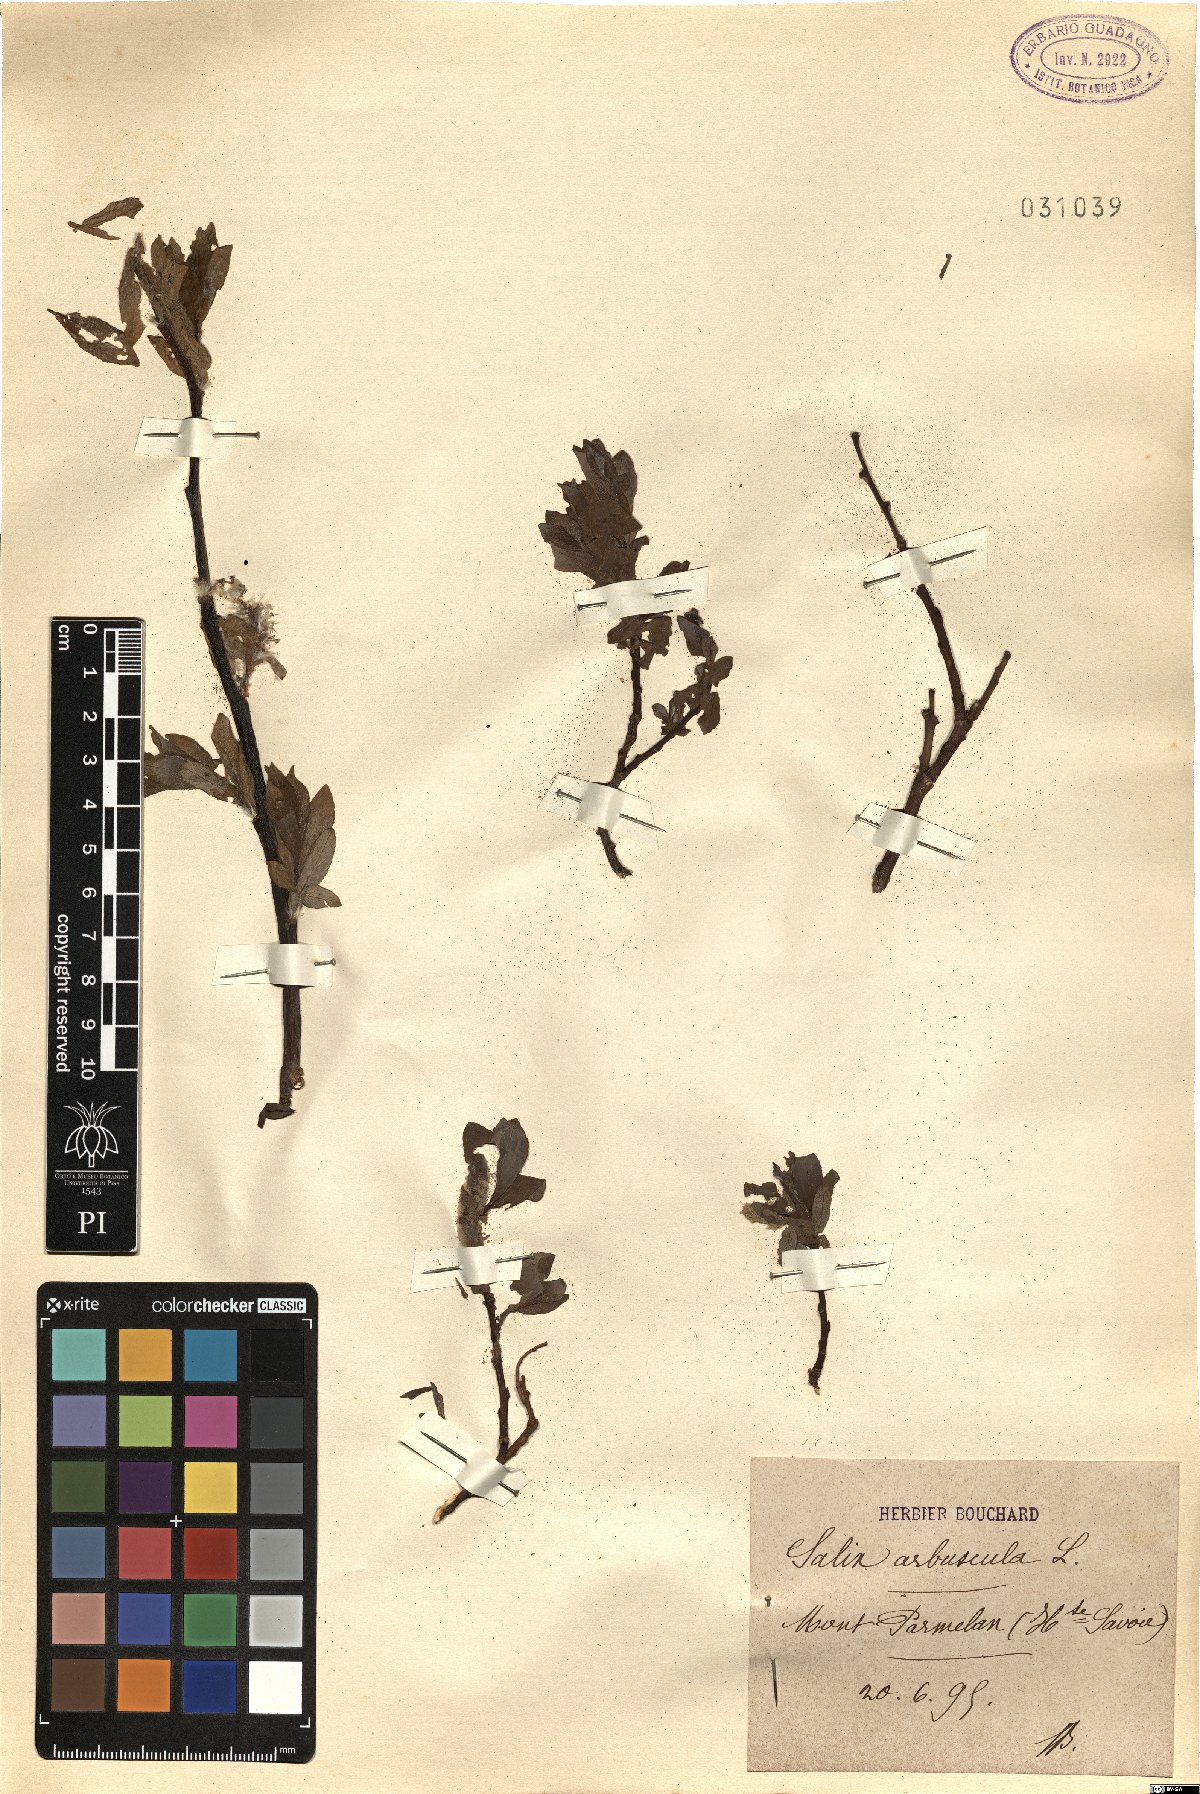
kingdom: Plantae
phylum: Tracheophyta
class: Magnoliopsida
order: Malpighiales
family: Salicaceae
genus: Salix
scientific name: Salix arbuscula
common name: Mountain willow
